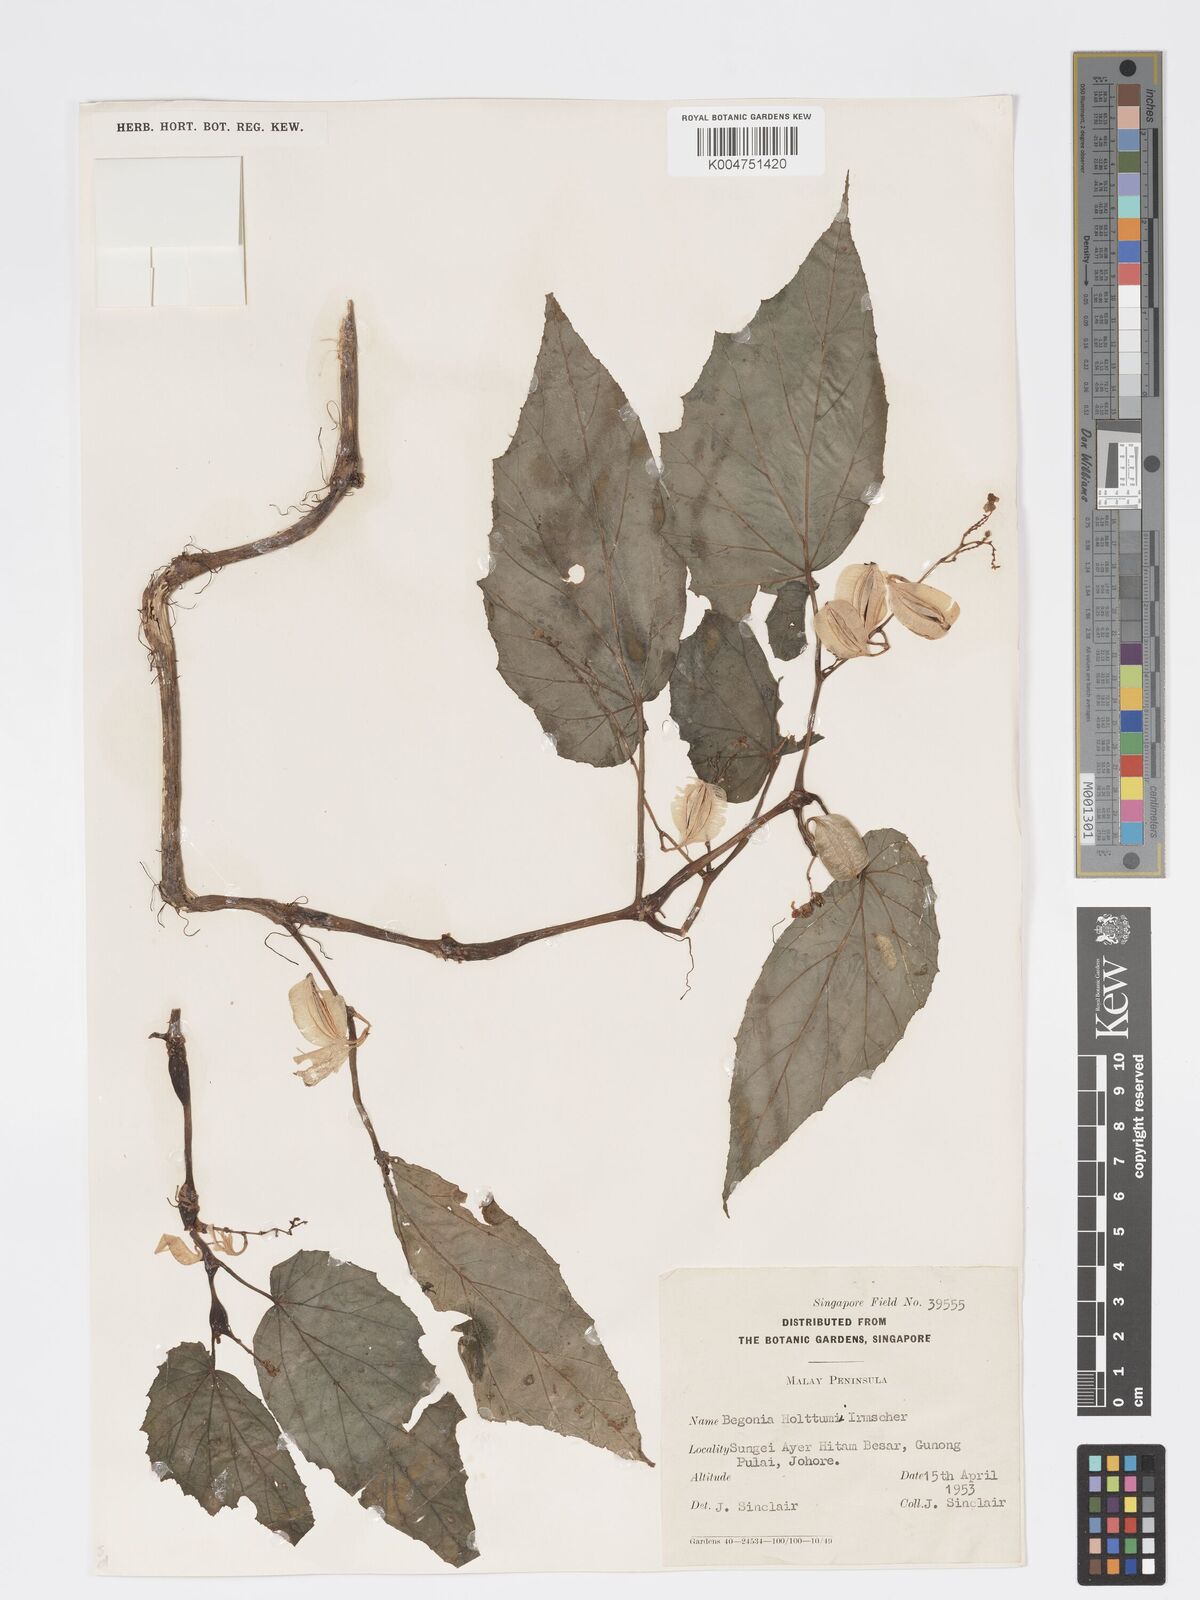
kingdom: Plantae
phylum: Tracheophyta
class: Magnoliopsida
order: Cucurbitales
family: Begoniaceae
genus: Begonia
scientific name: Begonia holttumii
